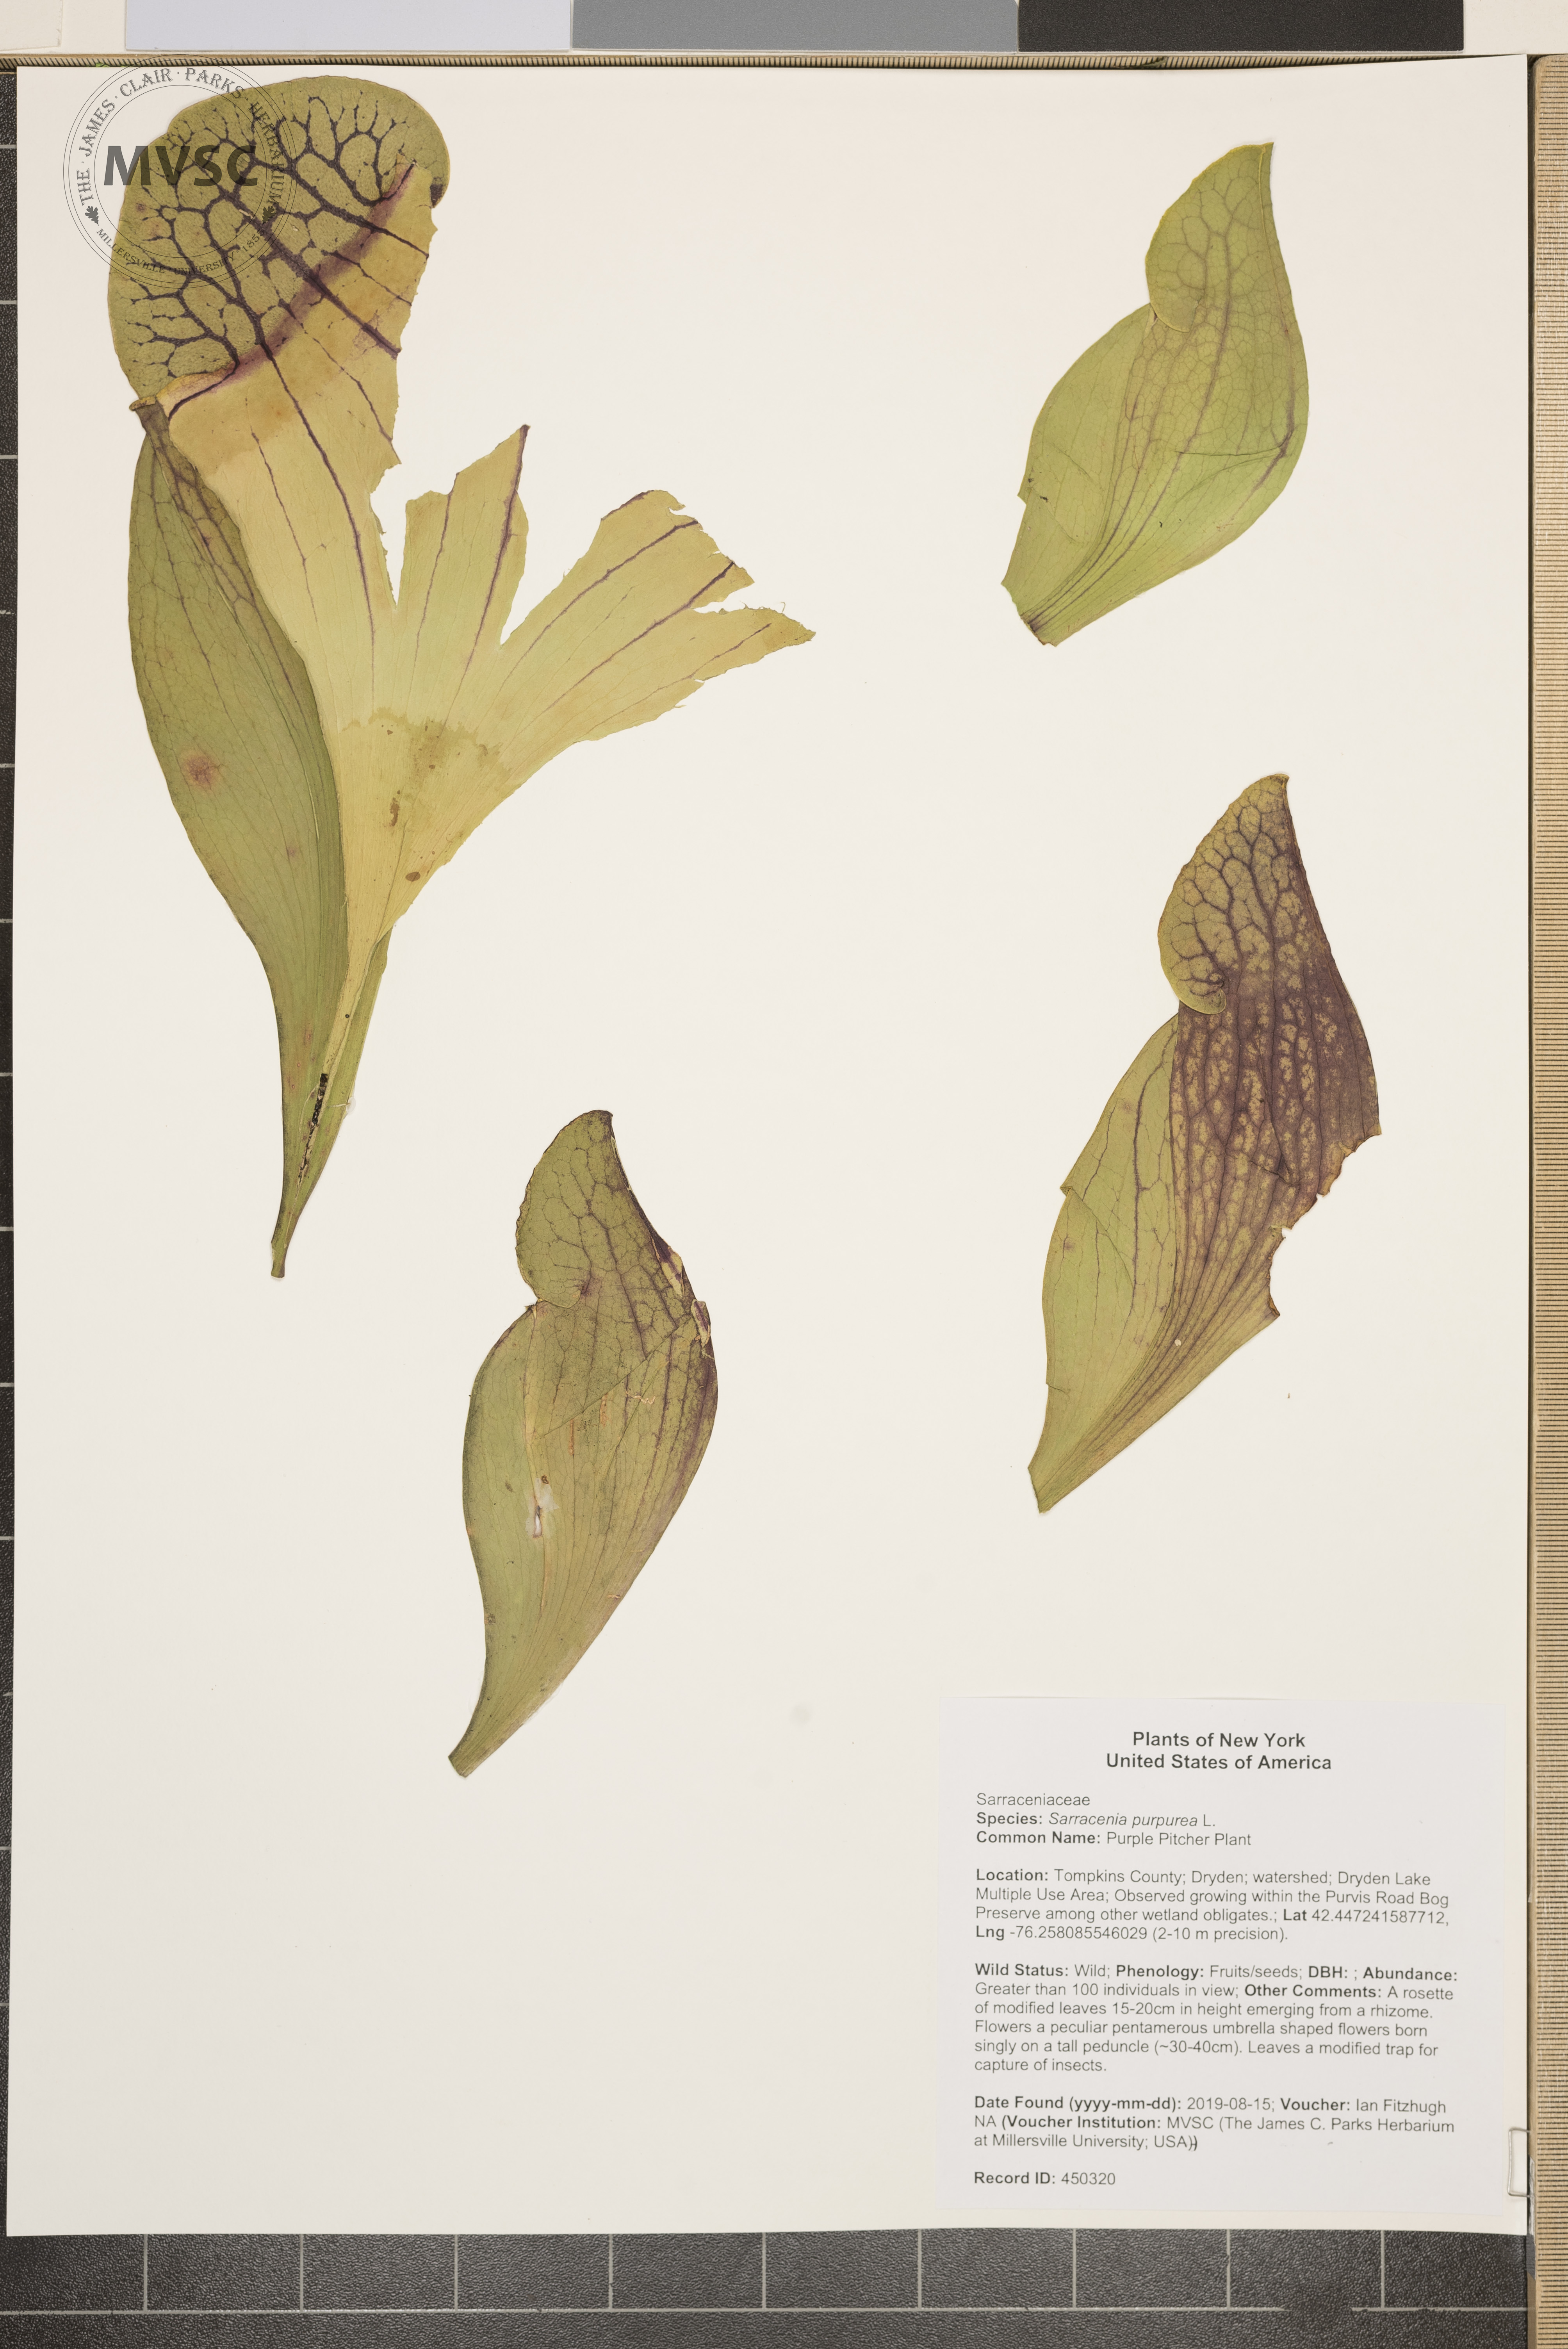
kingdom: Plantae
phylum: Tracheophyta
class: Magnoliopsida
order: Ericales
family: Sarraceniaceae
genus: Sarracenia
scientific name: Sarracenia purpurea
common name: Purple Pitcher Plant
